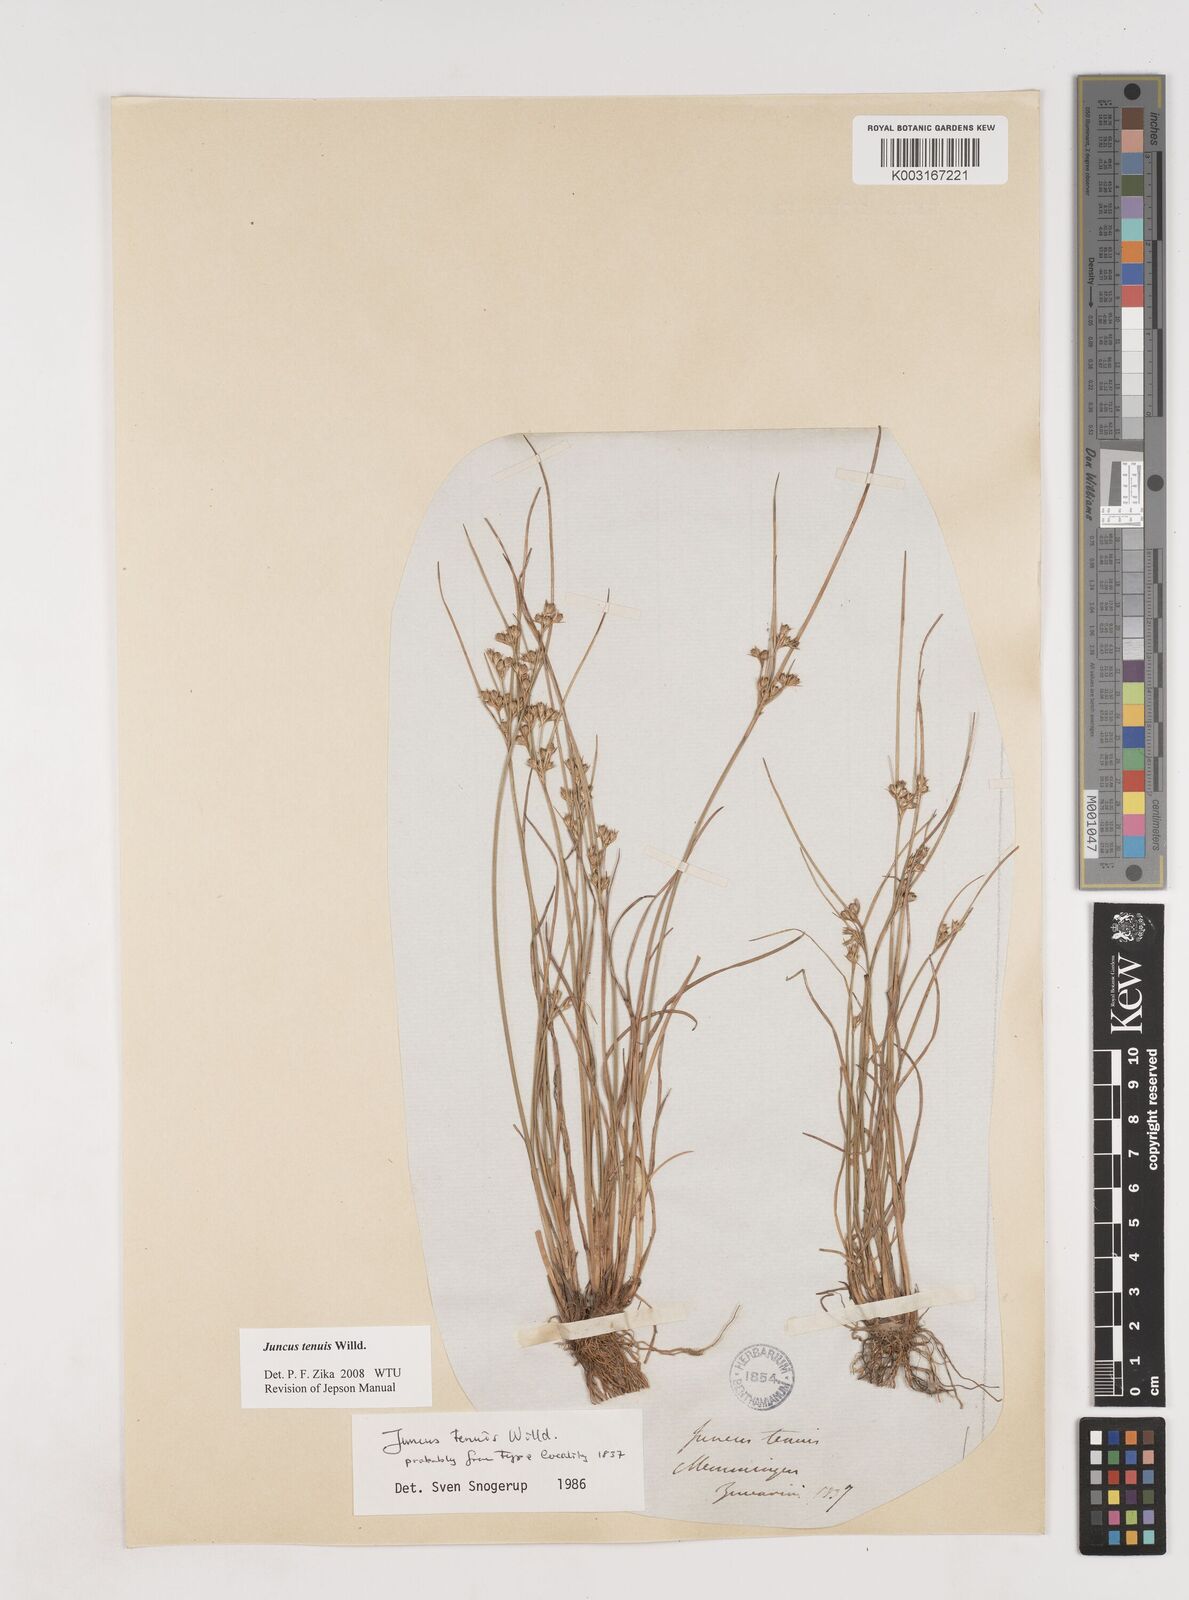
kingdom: Plantae
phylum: Tracheophyta
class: Liliopsida
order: Poales
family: Juncaceae
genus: Juncus
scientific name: Juncus tenuis
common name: Slender rush
